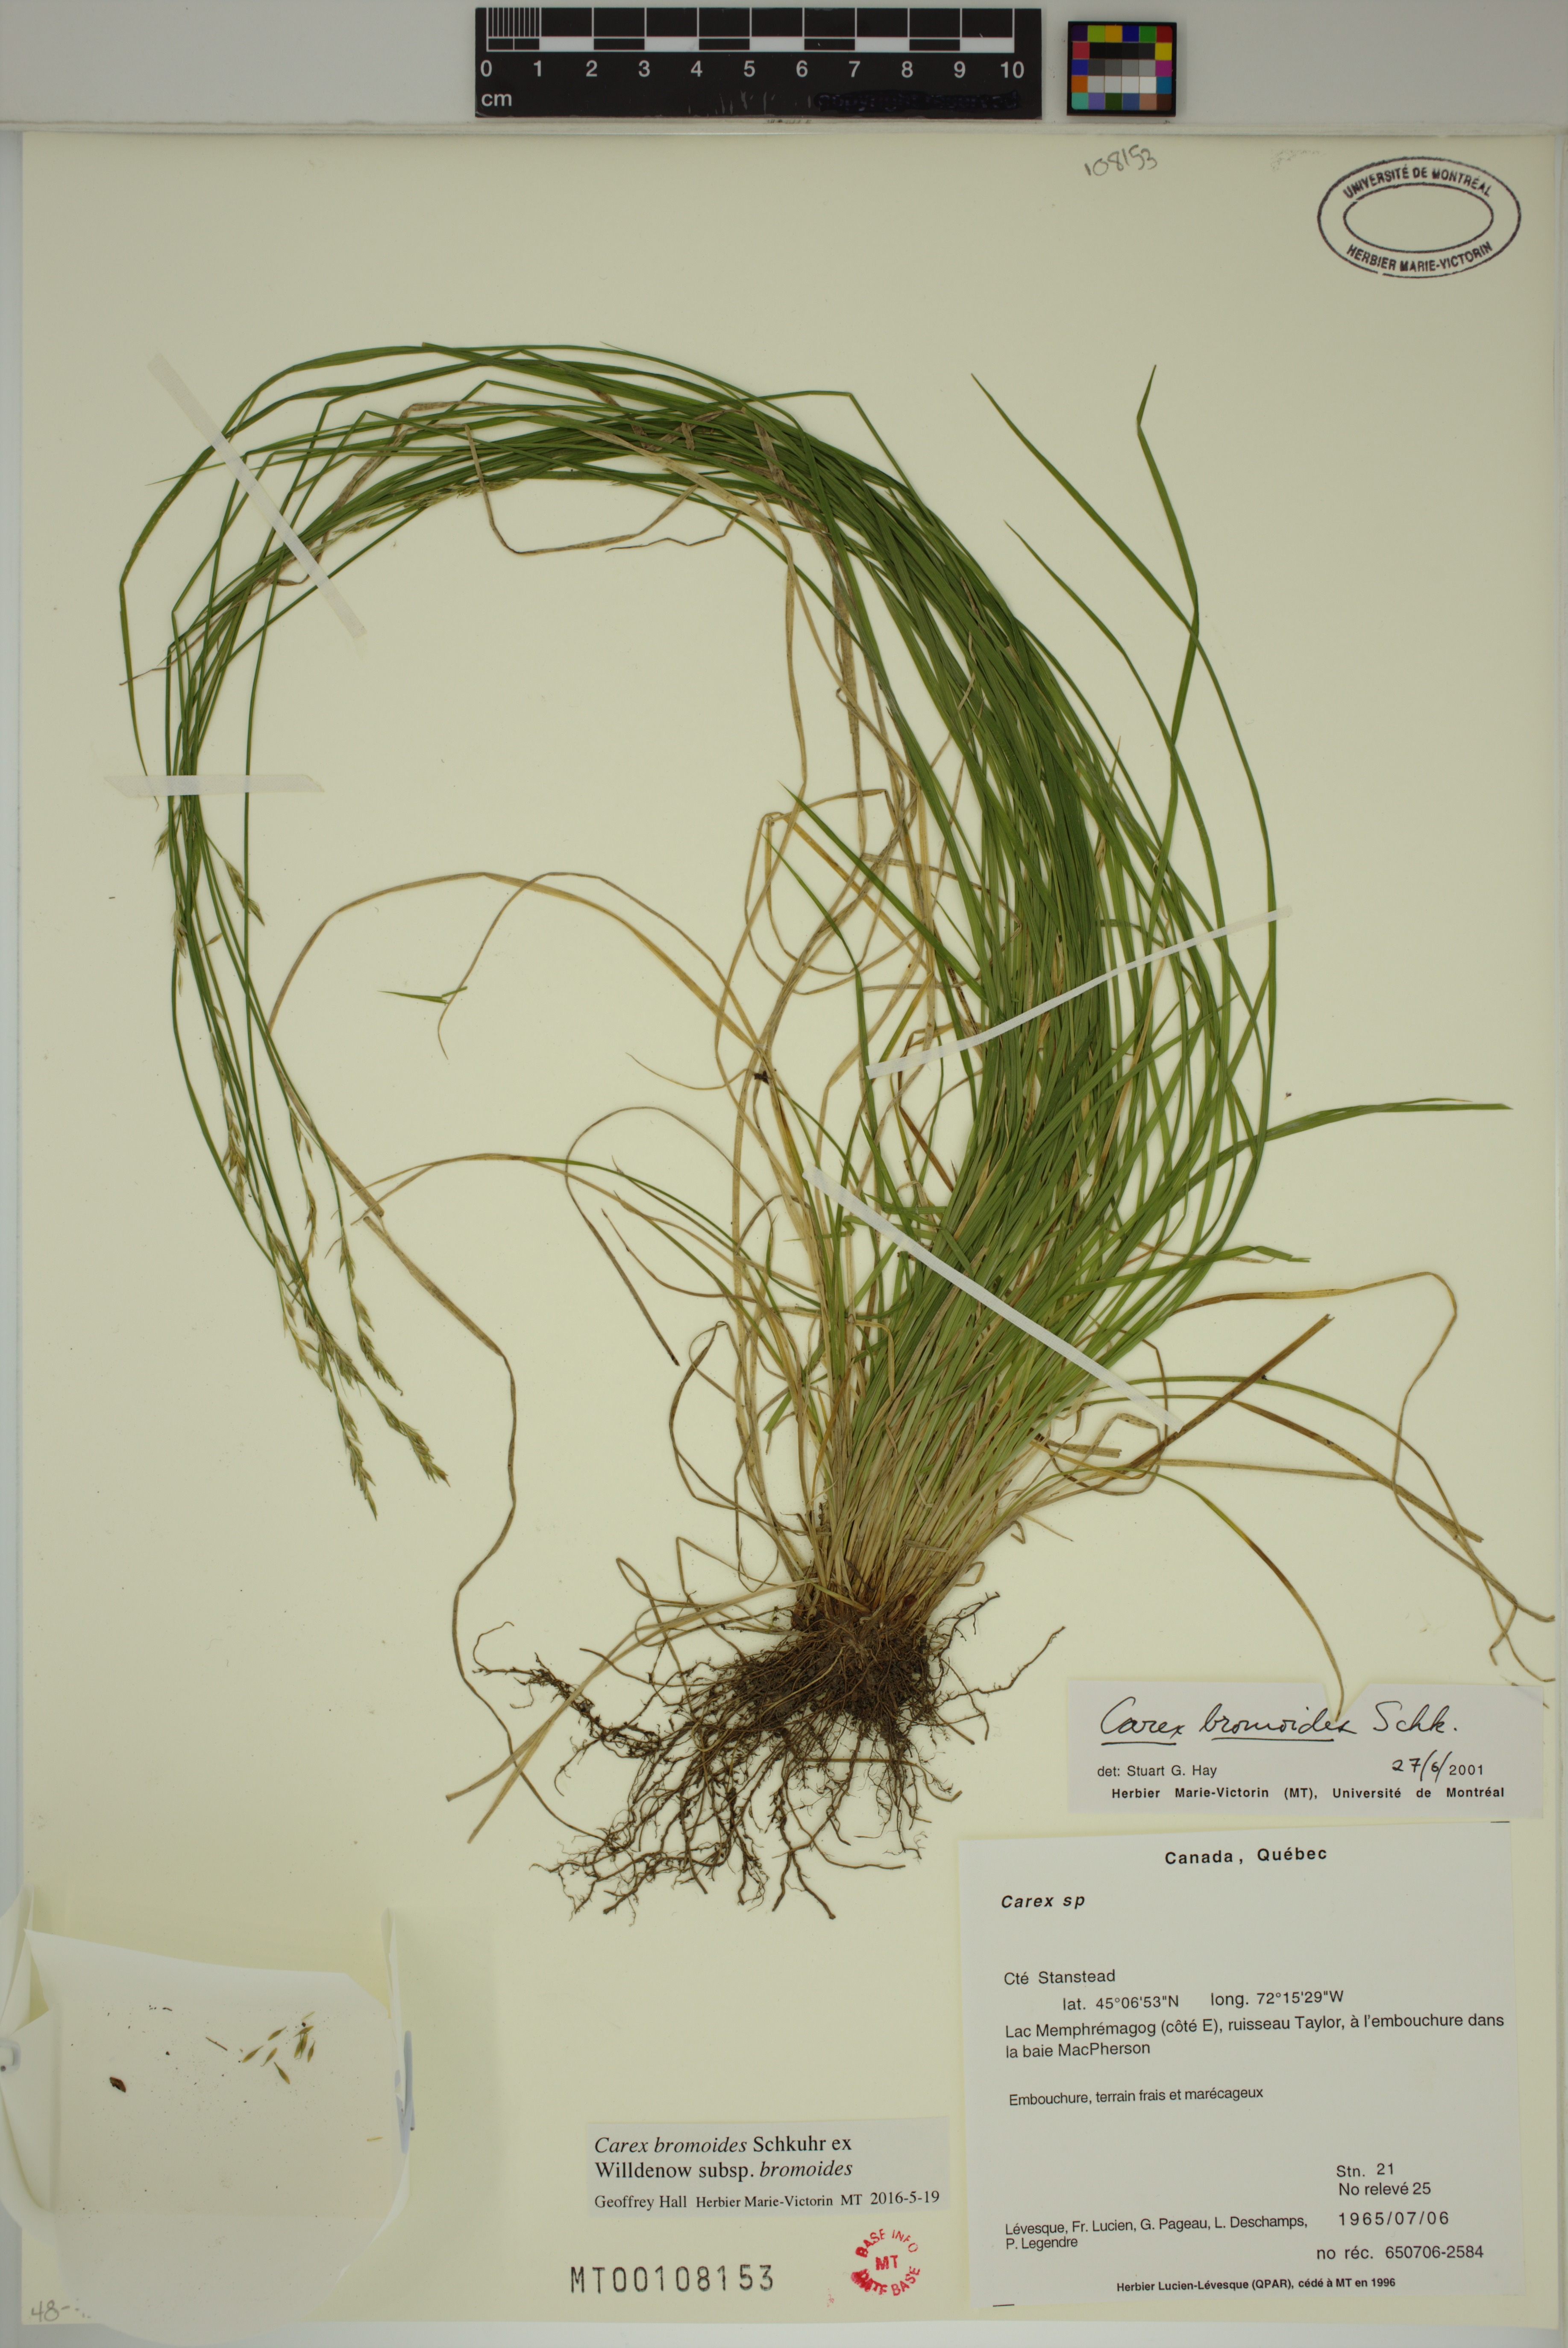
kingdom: Plantae
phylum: Tracheophyta
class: Liliopsida
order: Poales
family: Cyperaceae
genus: Carex
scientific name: Carex bromoides
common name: Brome hummock sedge
